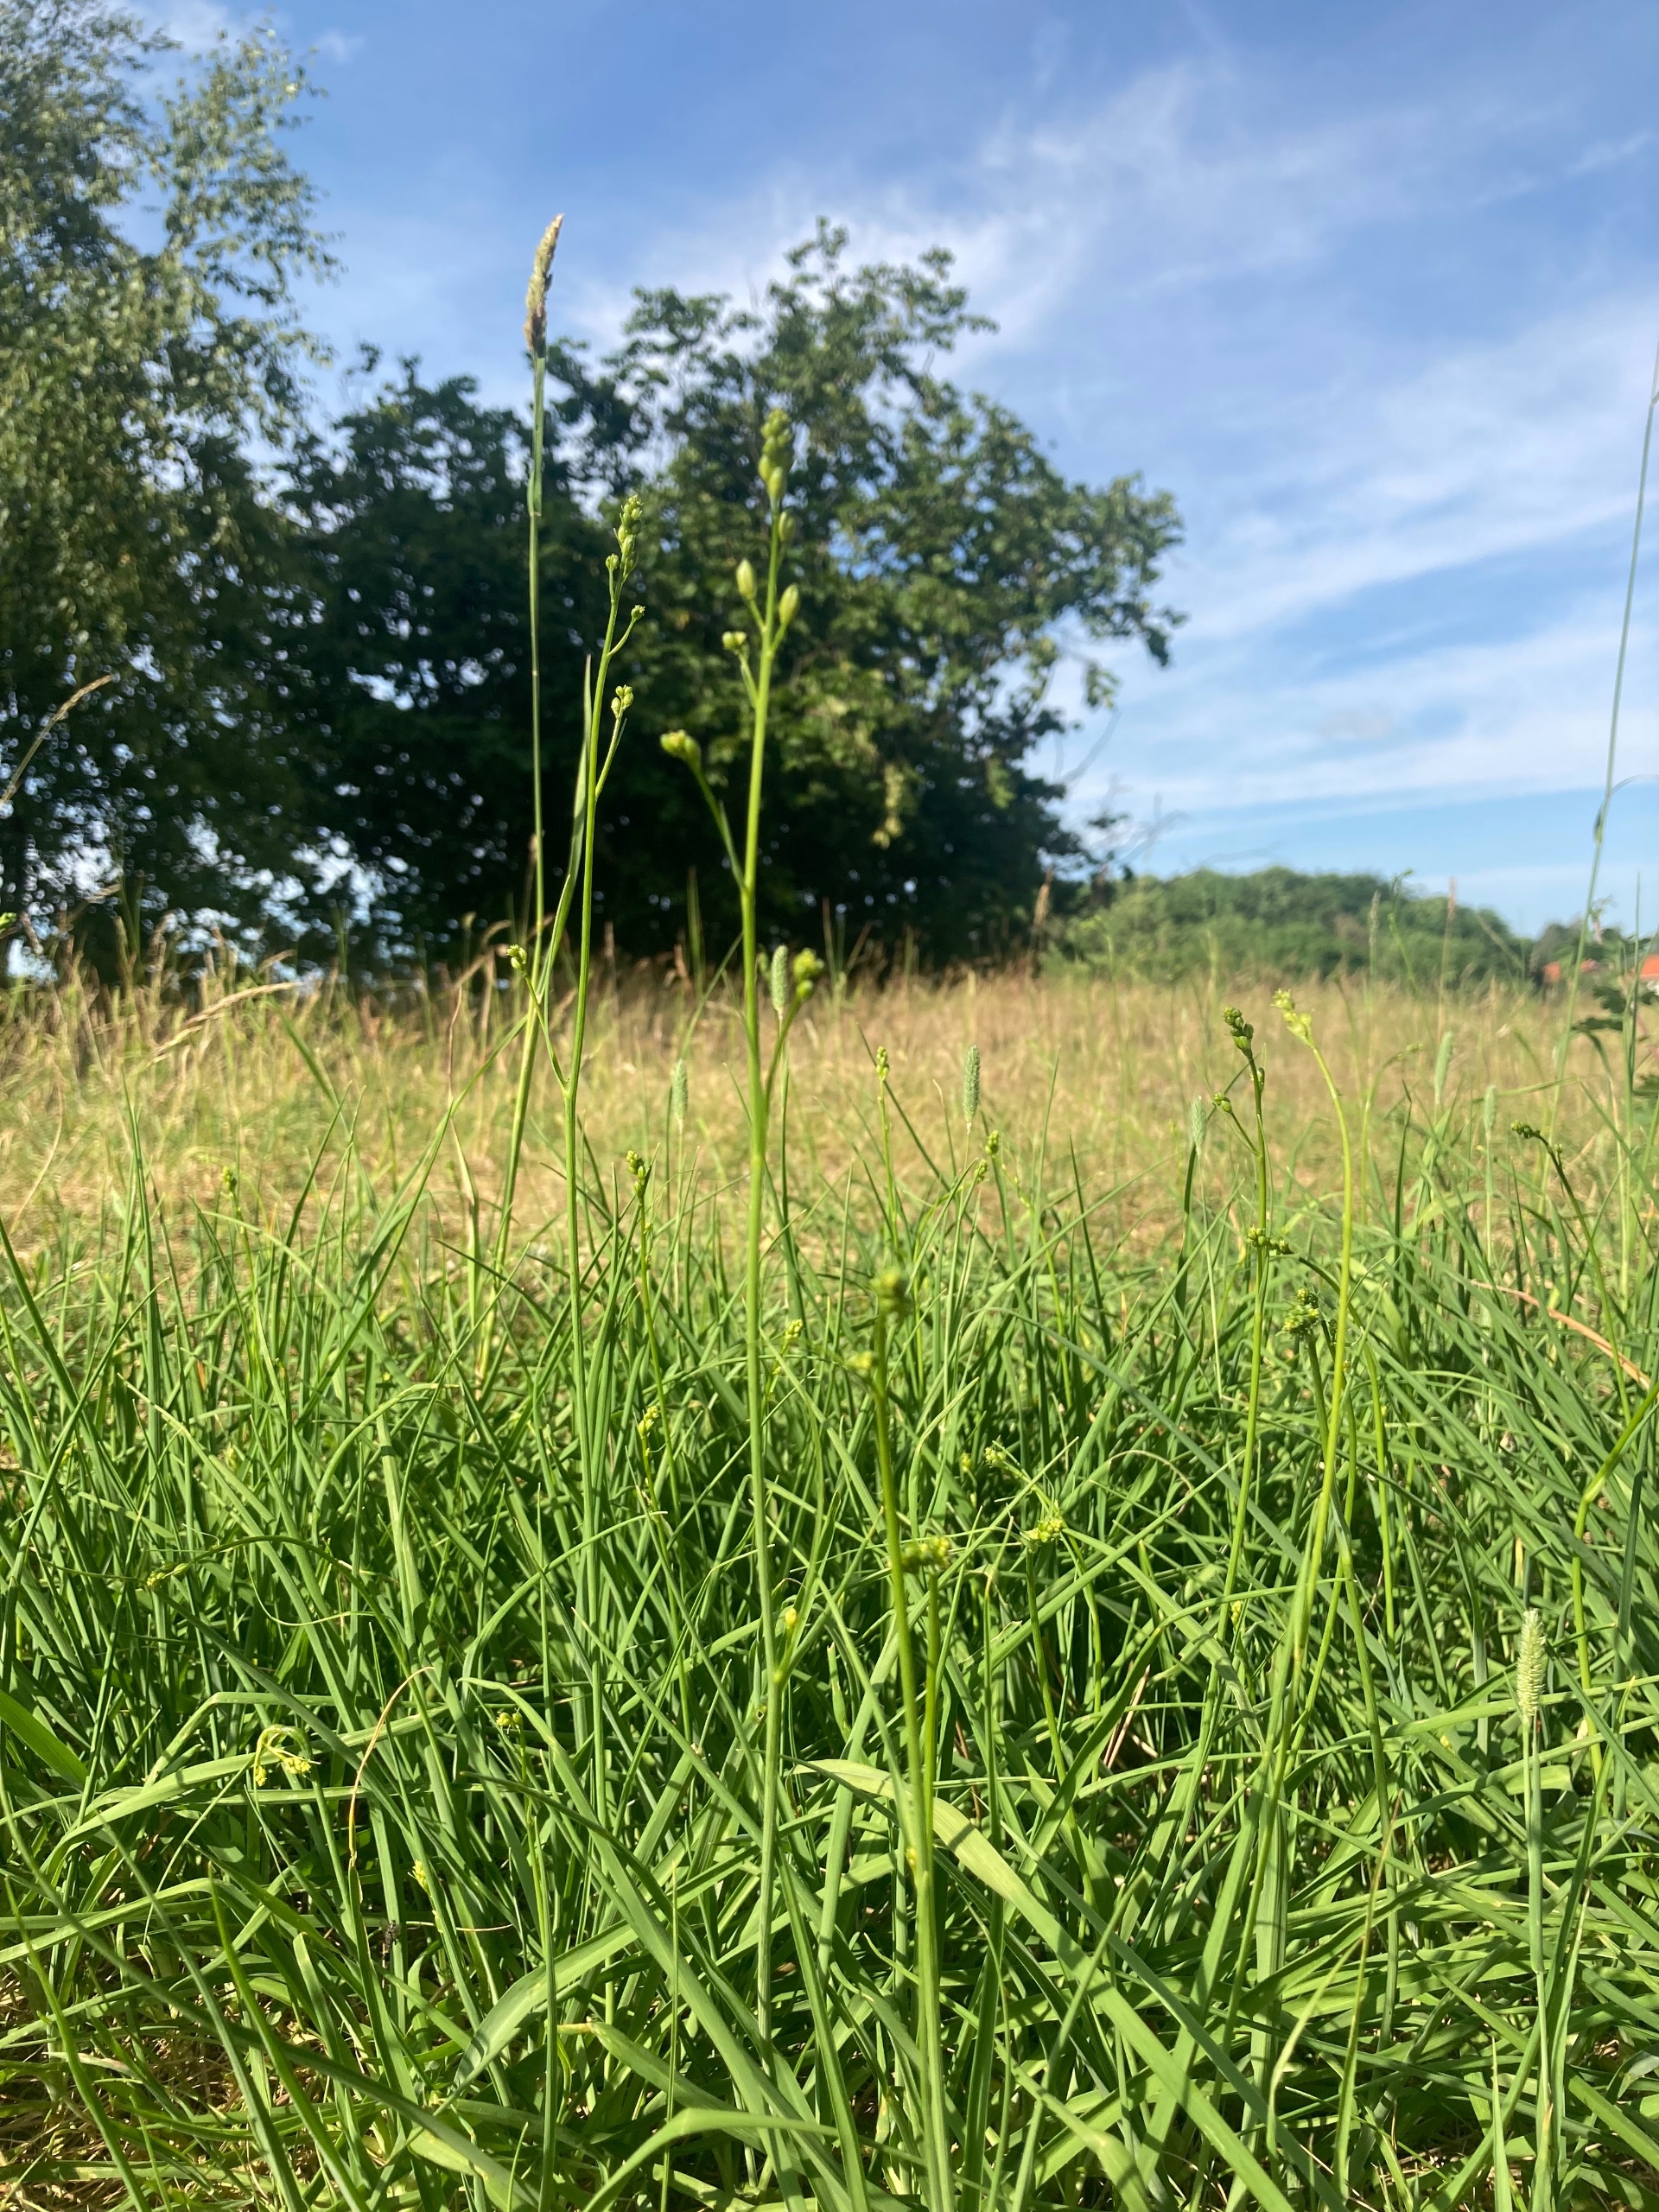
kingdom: Plantae
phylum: Tracheophyta
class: Liliopsida
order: Asparagales
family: Asparagaceae
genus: Anthericum
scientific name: Anthericum ramosum
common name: Grenet edderkopurt
